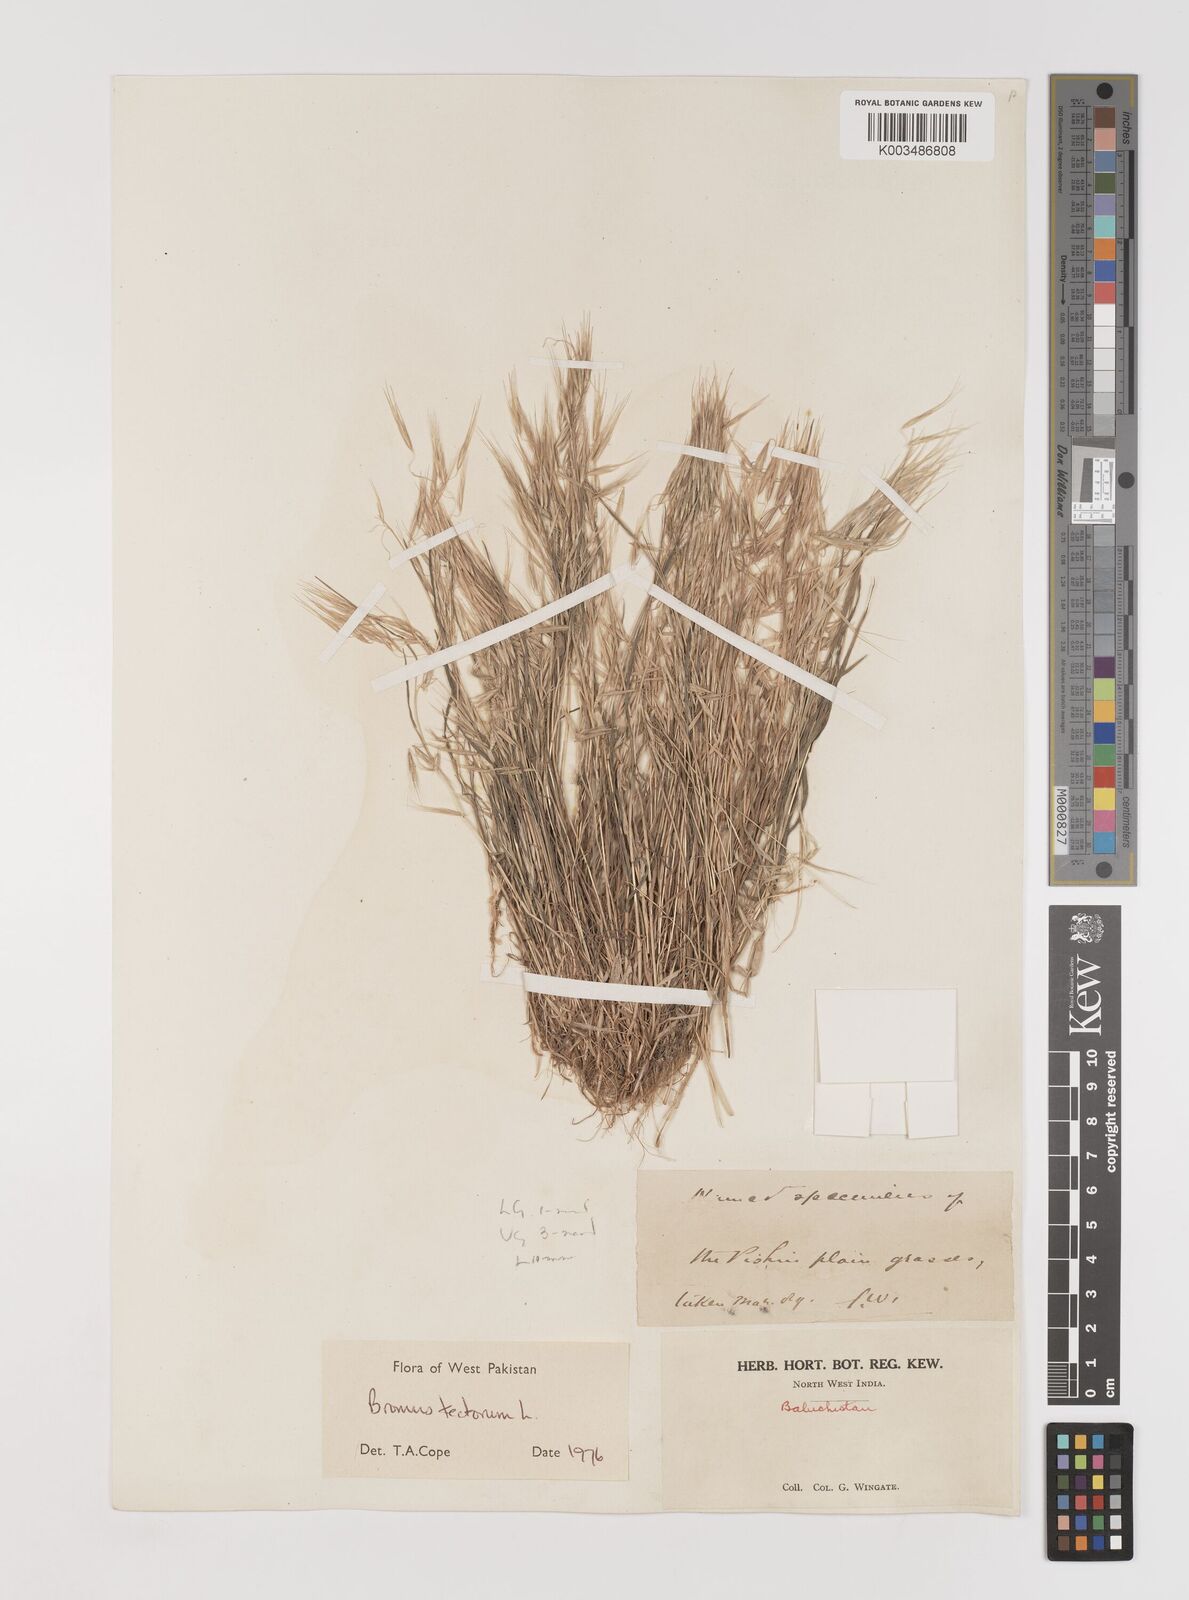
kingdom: Plantae
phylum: Tracheophyta
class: Liliopsida
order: Poales
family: Poaceae
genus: Bromus
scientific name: Bromus tectorum
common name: Cheatgrass
